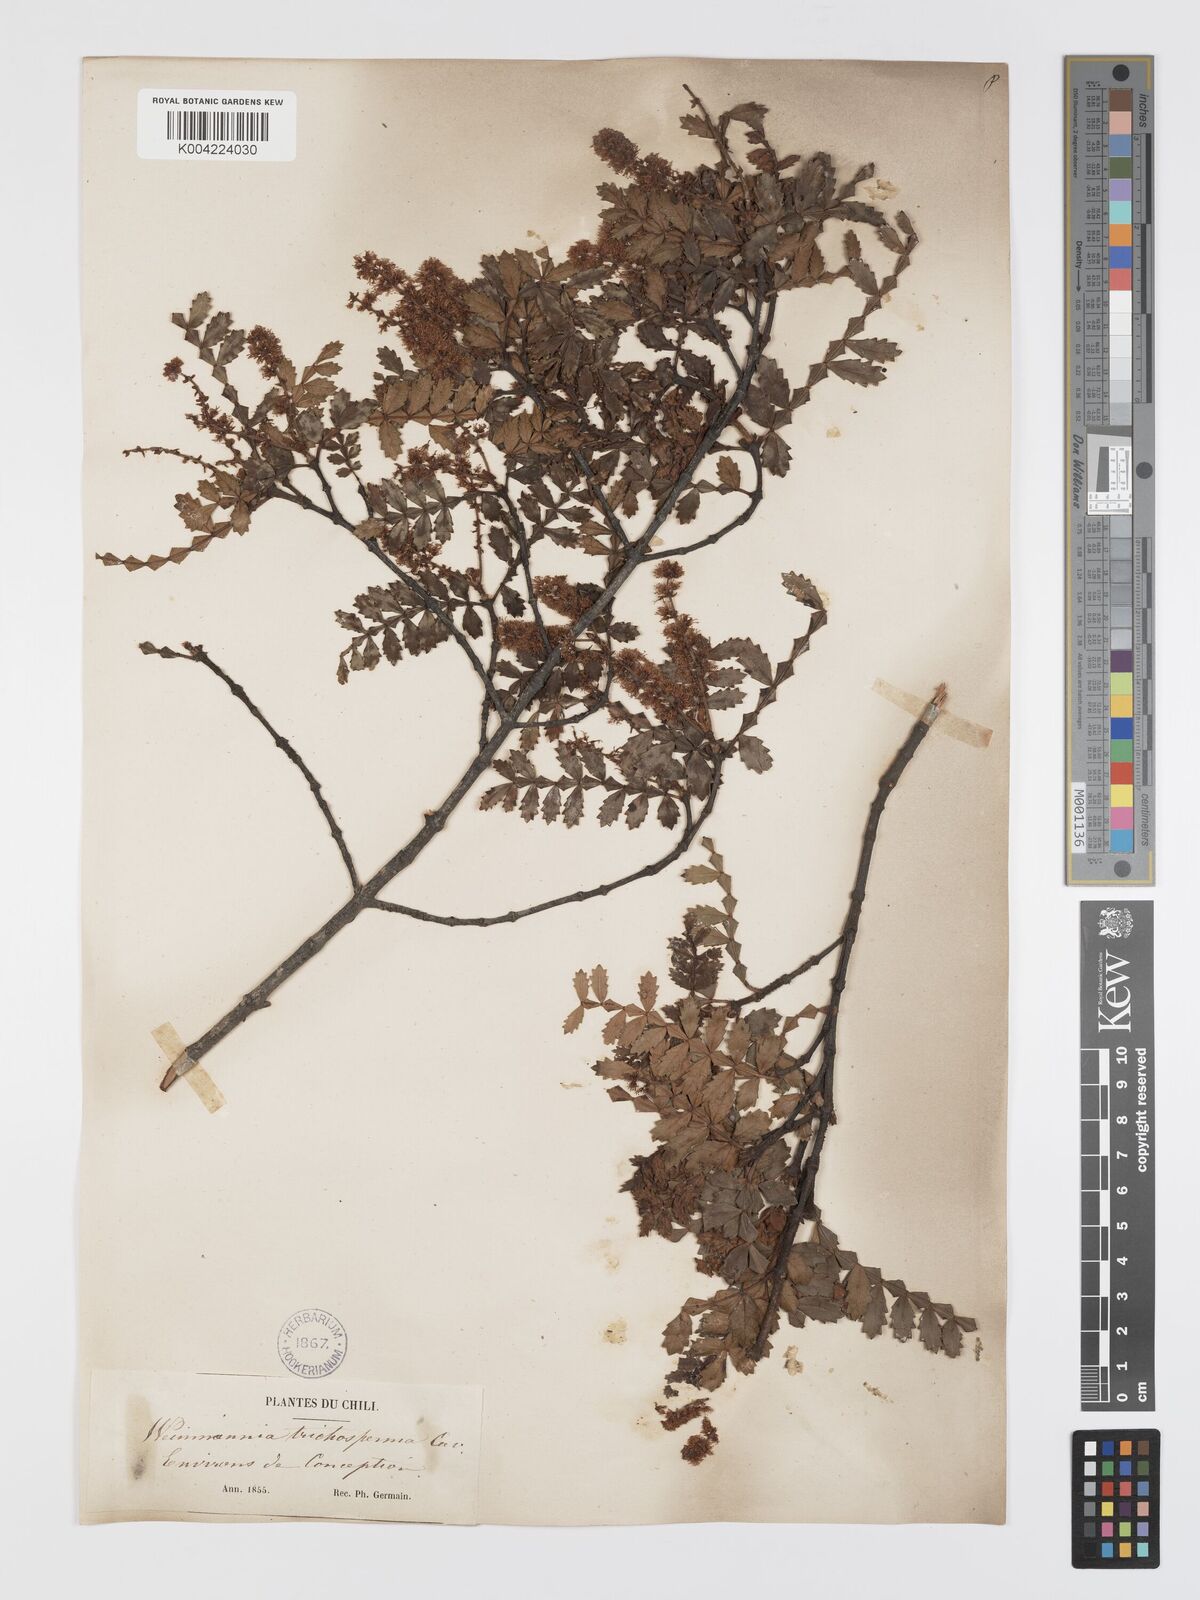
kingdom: Plantae
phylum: Tracheophyta
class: Magnoliopsida
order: Oxalidales
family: Cunoniaceae
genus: Weinmannia
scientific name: Weinmannia trichosperma
